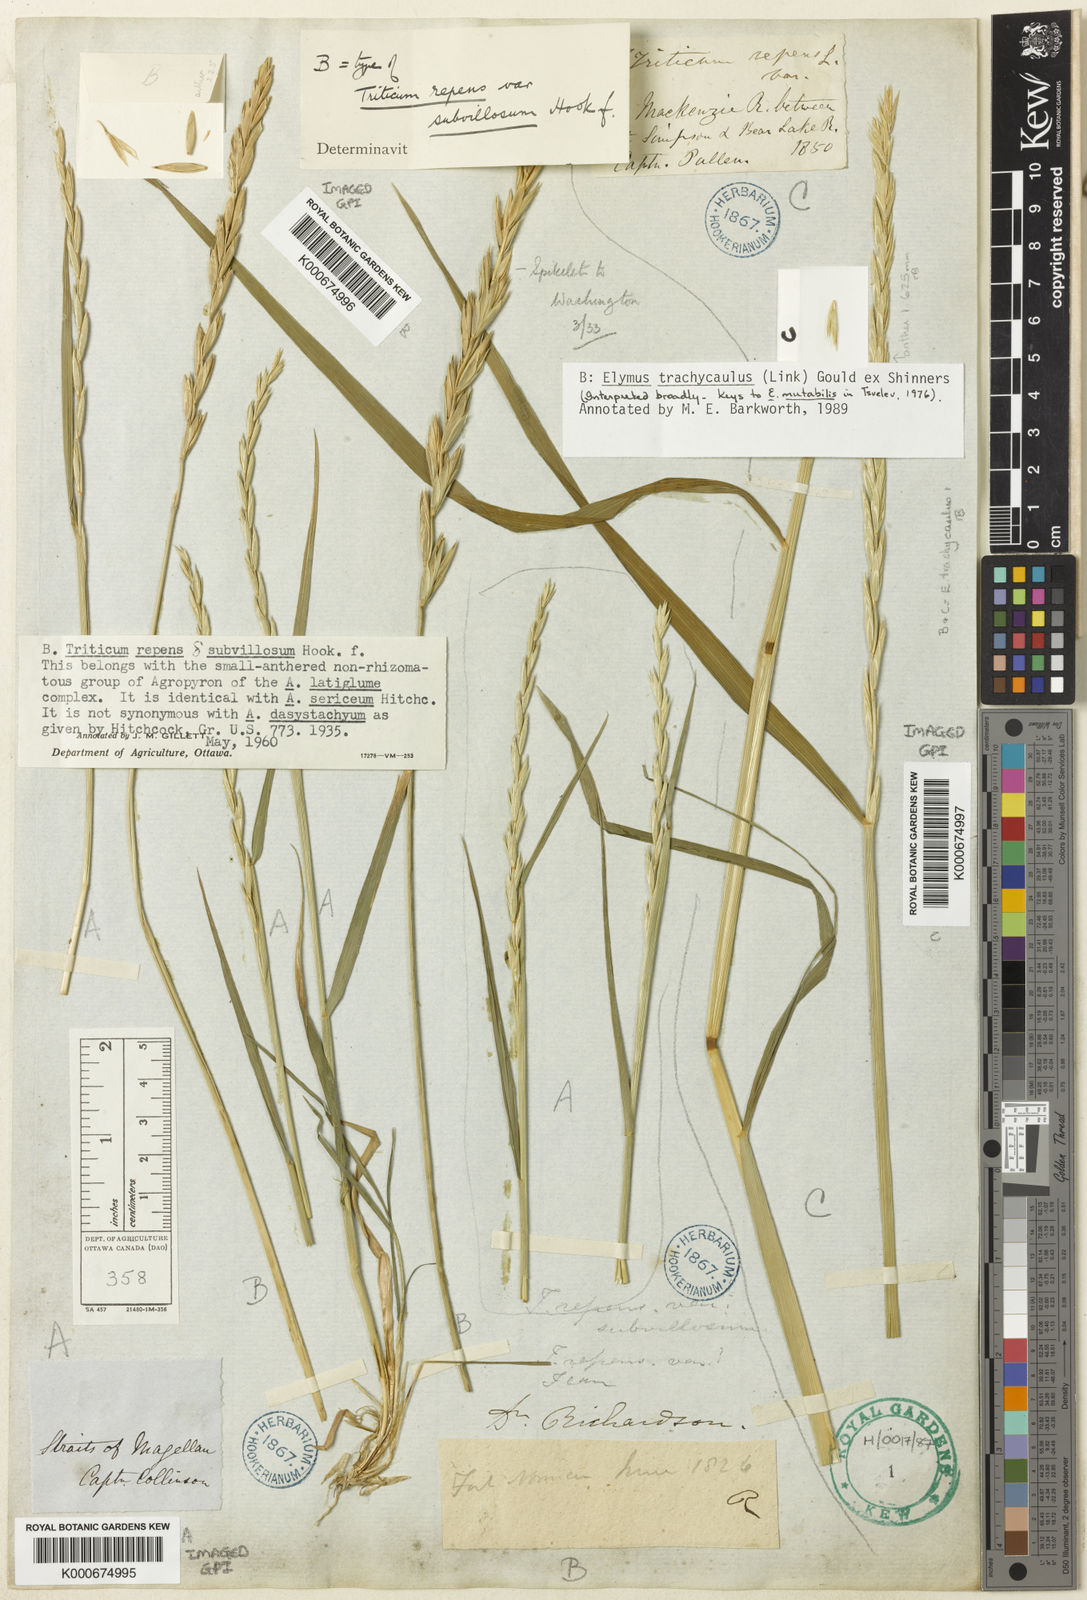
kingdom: Plantae
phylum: Tracheophyta
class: Liliopsida
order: Poales
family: Poaceae
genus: Elymus
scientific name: Elymus
